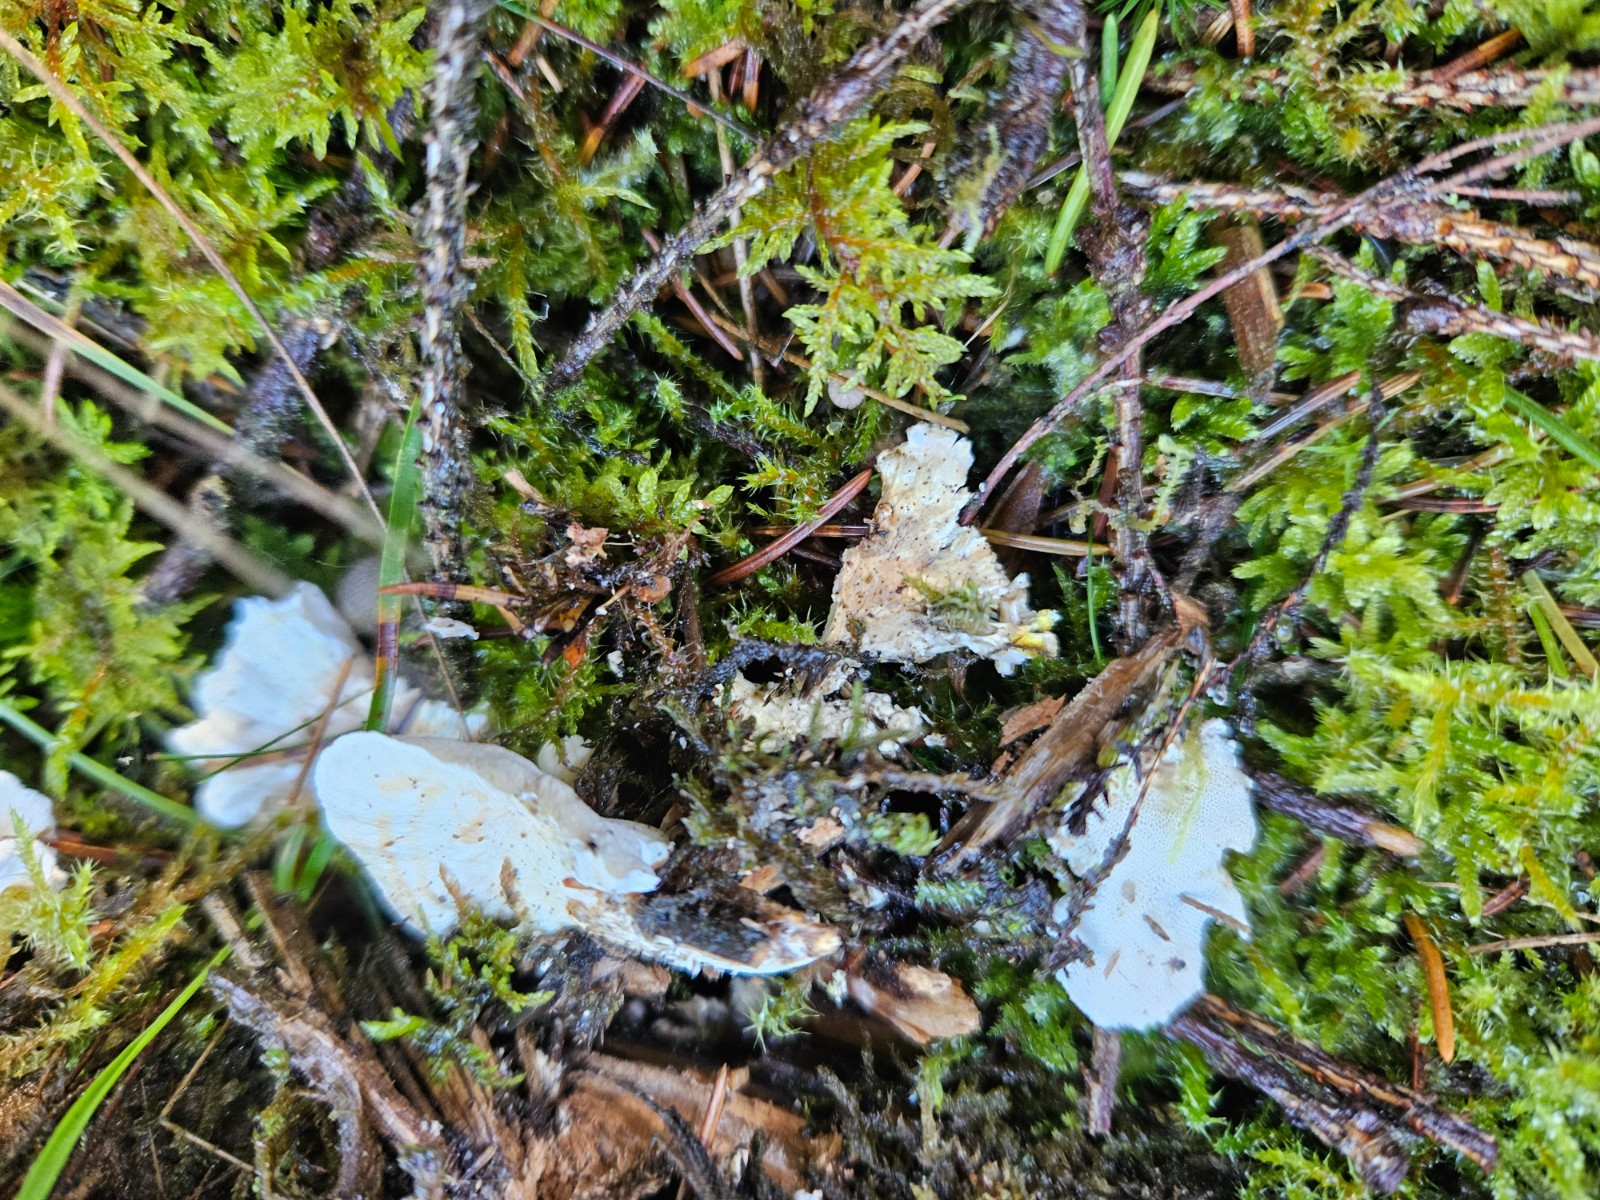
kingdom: Fungi
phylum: Basidiomycota
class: Agaricomycetes
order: Polyporales
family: Dacryobolaceae
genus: Oligoporus
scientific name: Oligoporus wakefieldiae
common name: række-kødporesvamp
